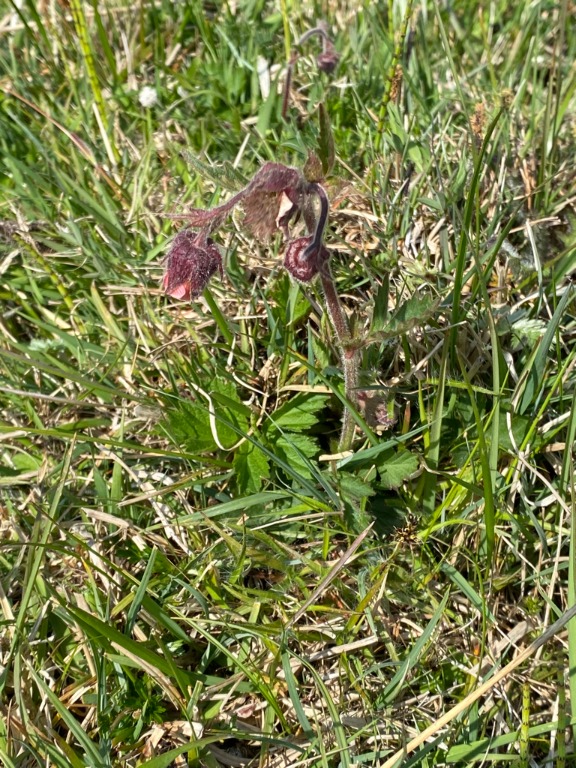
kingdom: Plantae
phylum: Tracheophyta
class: Magnoliopsida
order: Rosales
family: Rosaceae
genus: Geum
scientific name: Geum rivale
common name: Eng-nellikerod
